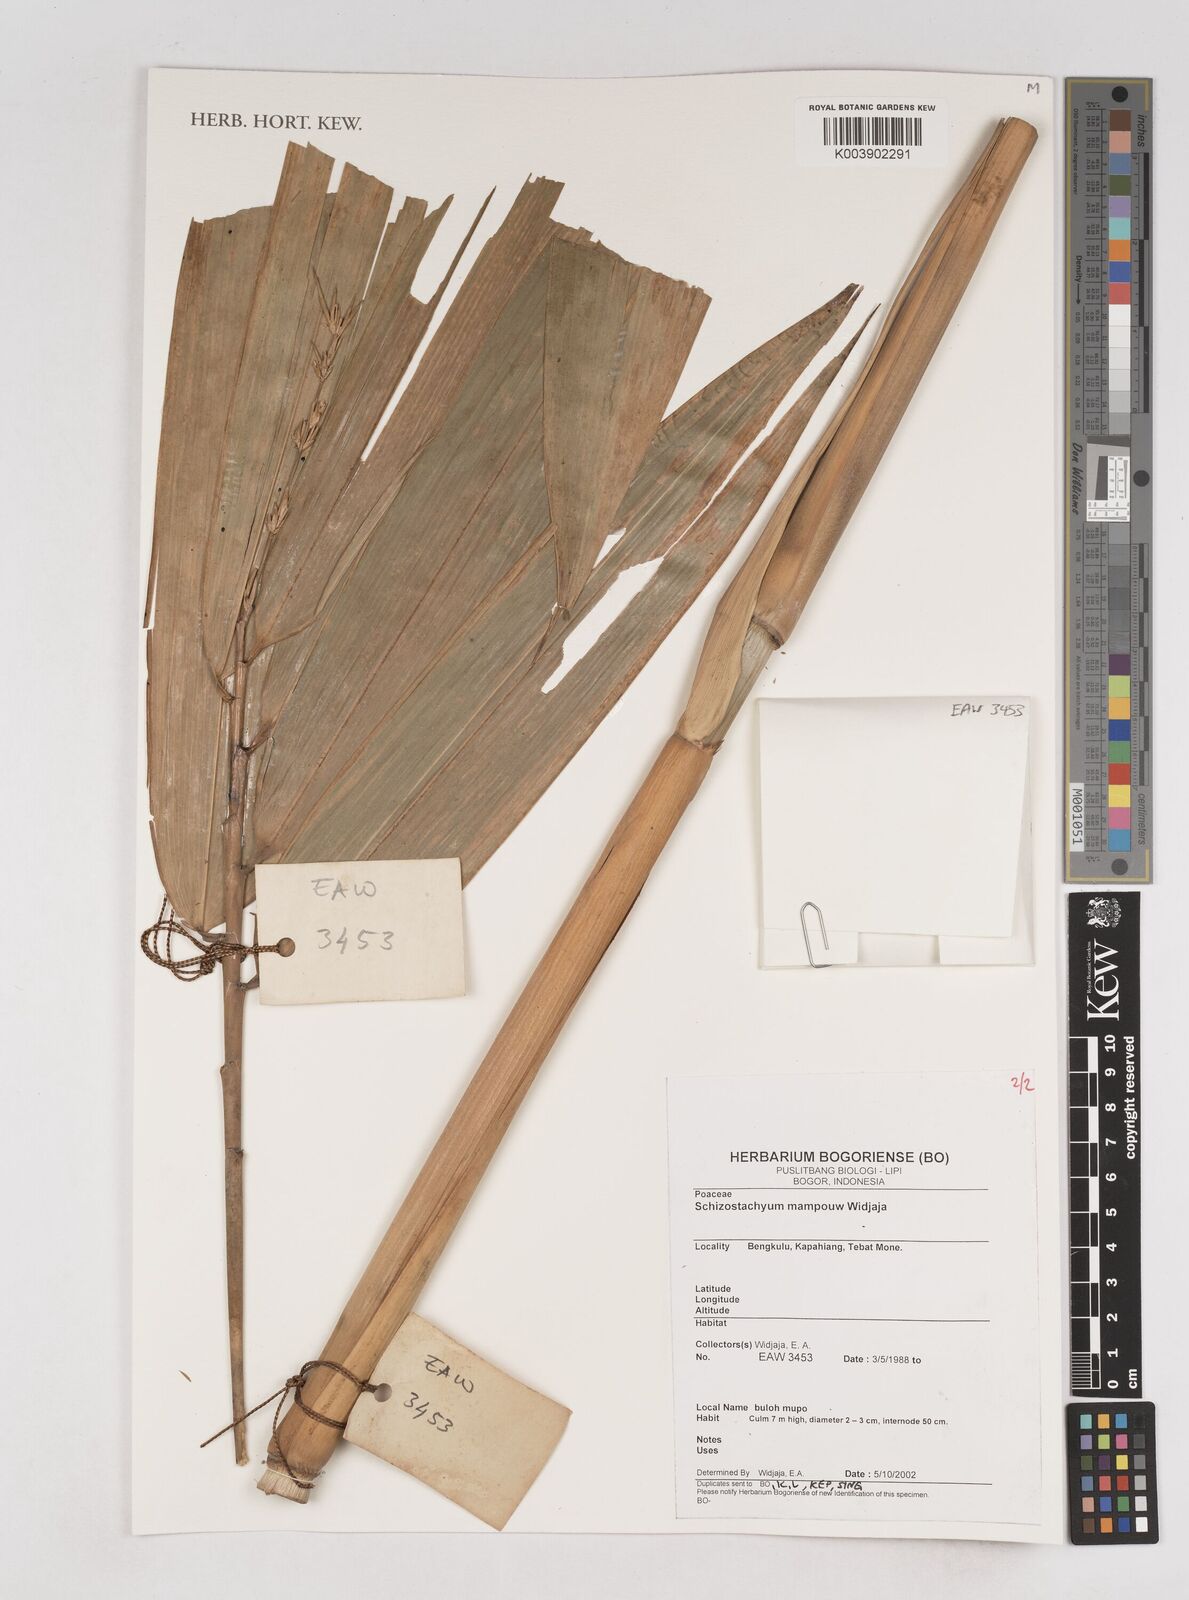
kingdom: Plantae
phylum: Tracheophyta
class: Liliopsida
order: Poales
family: Poaceae
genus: Schizostachyum
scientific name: Schizostachyum mampouw
